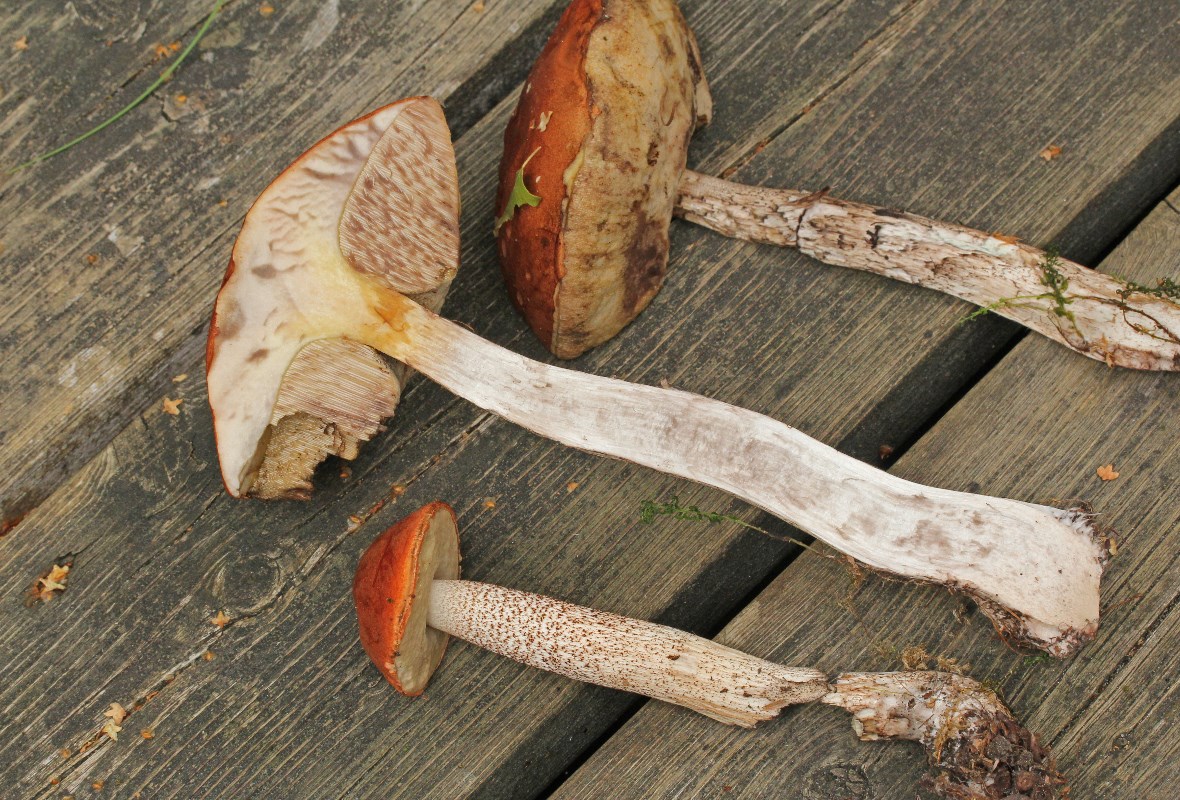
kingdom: Fungi
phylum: Basidiomycota
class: Agaricomycetes
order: Boletales
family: Boletaceae
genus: Leccinum
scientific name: Leccinum aurantiacum
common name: rustrød skælrørhat
